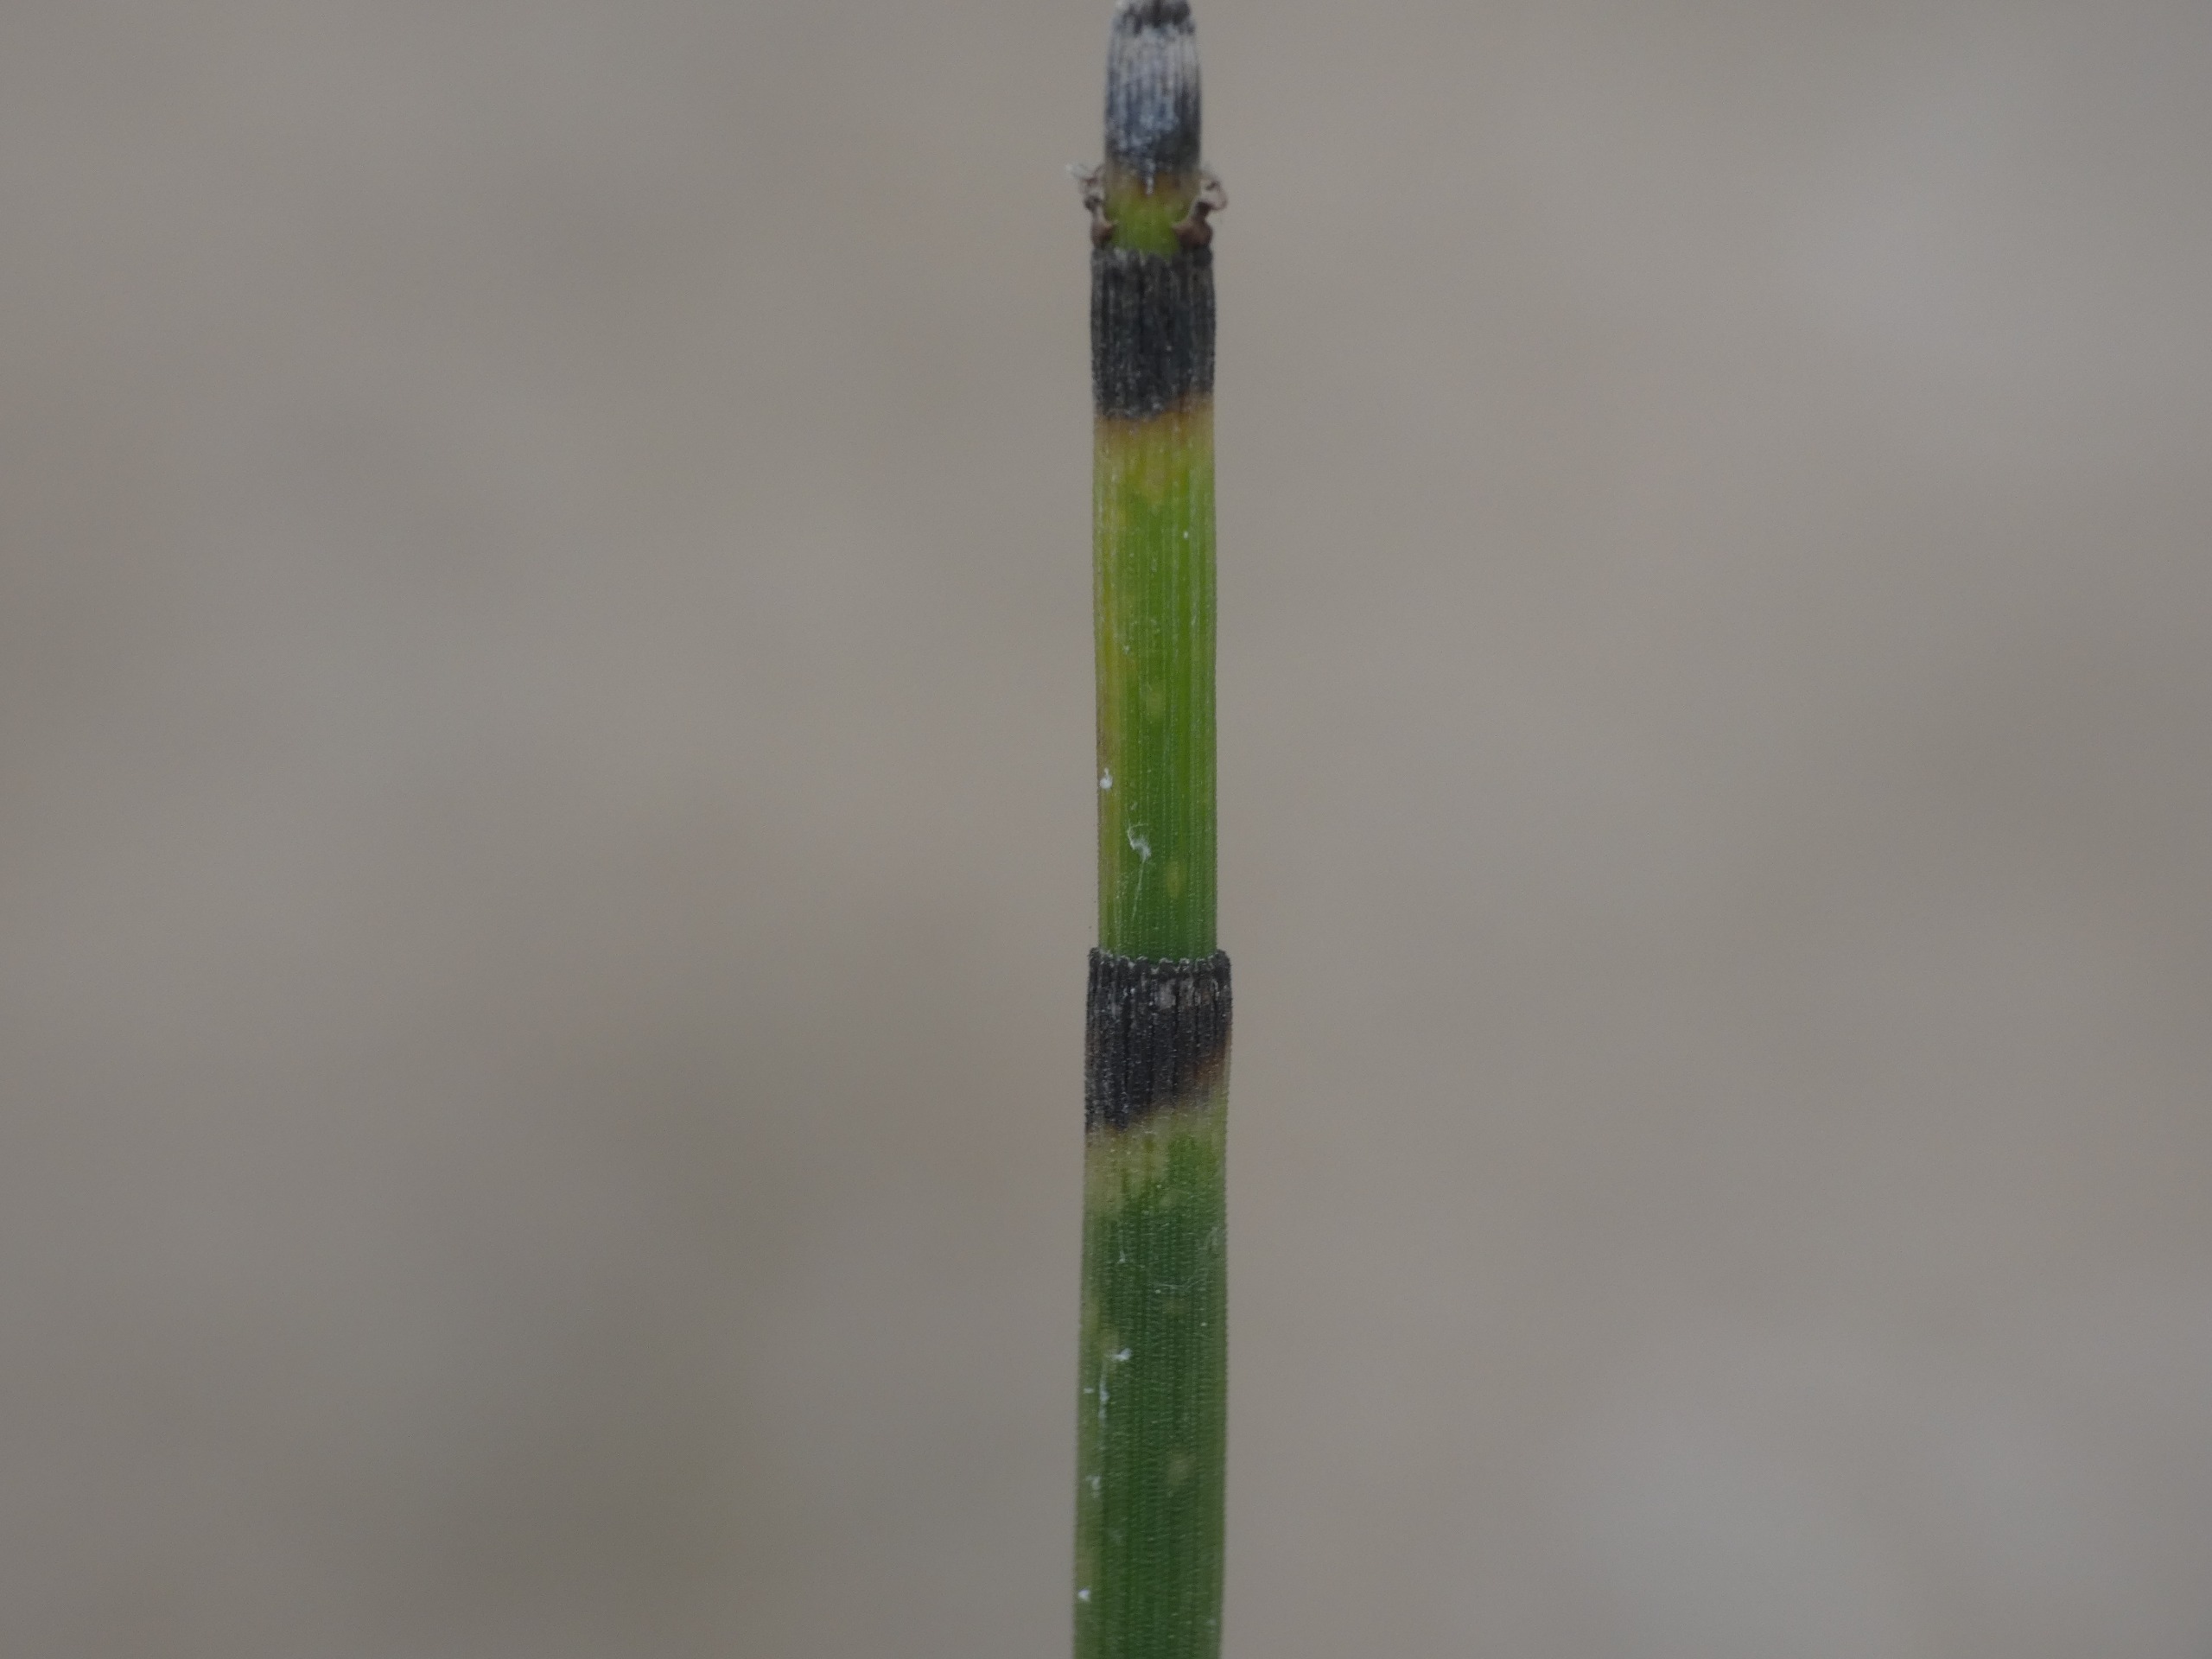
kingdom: Plantae
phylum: Tracheophyta
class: Polypodiopsida
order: Equisetales
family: Equisetaceae
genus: Equisetum
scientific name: Equisetum hyemale
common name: Skavgræs
